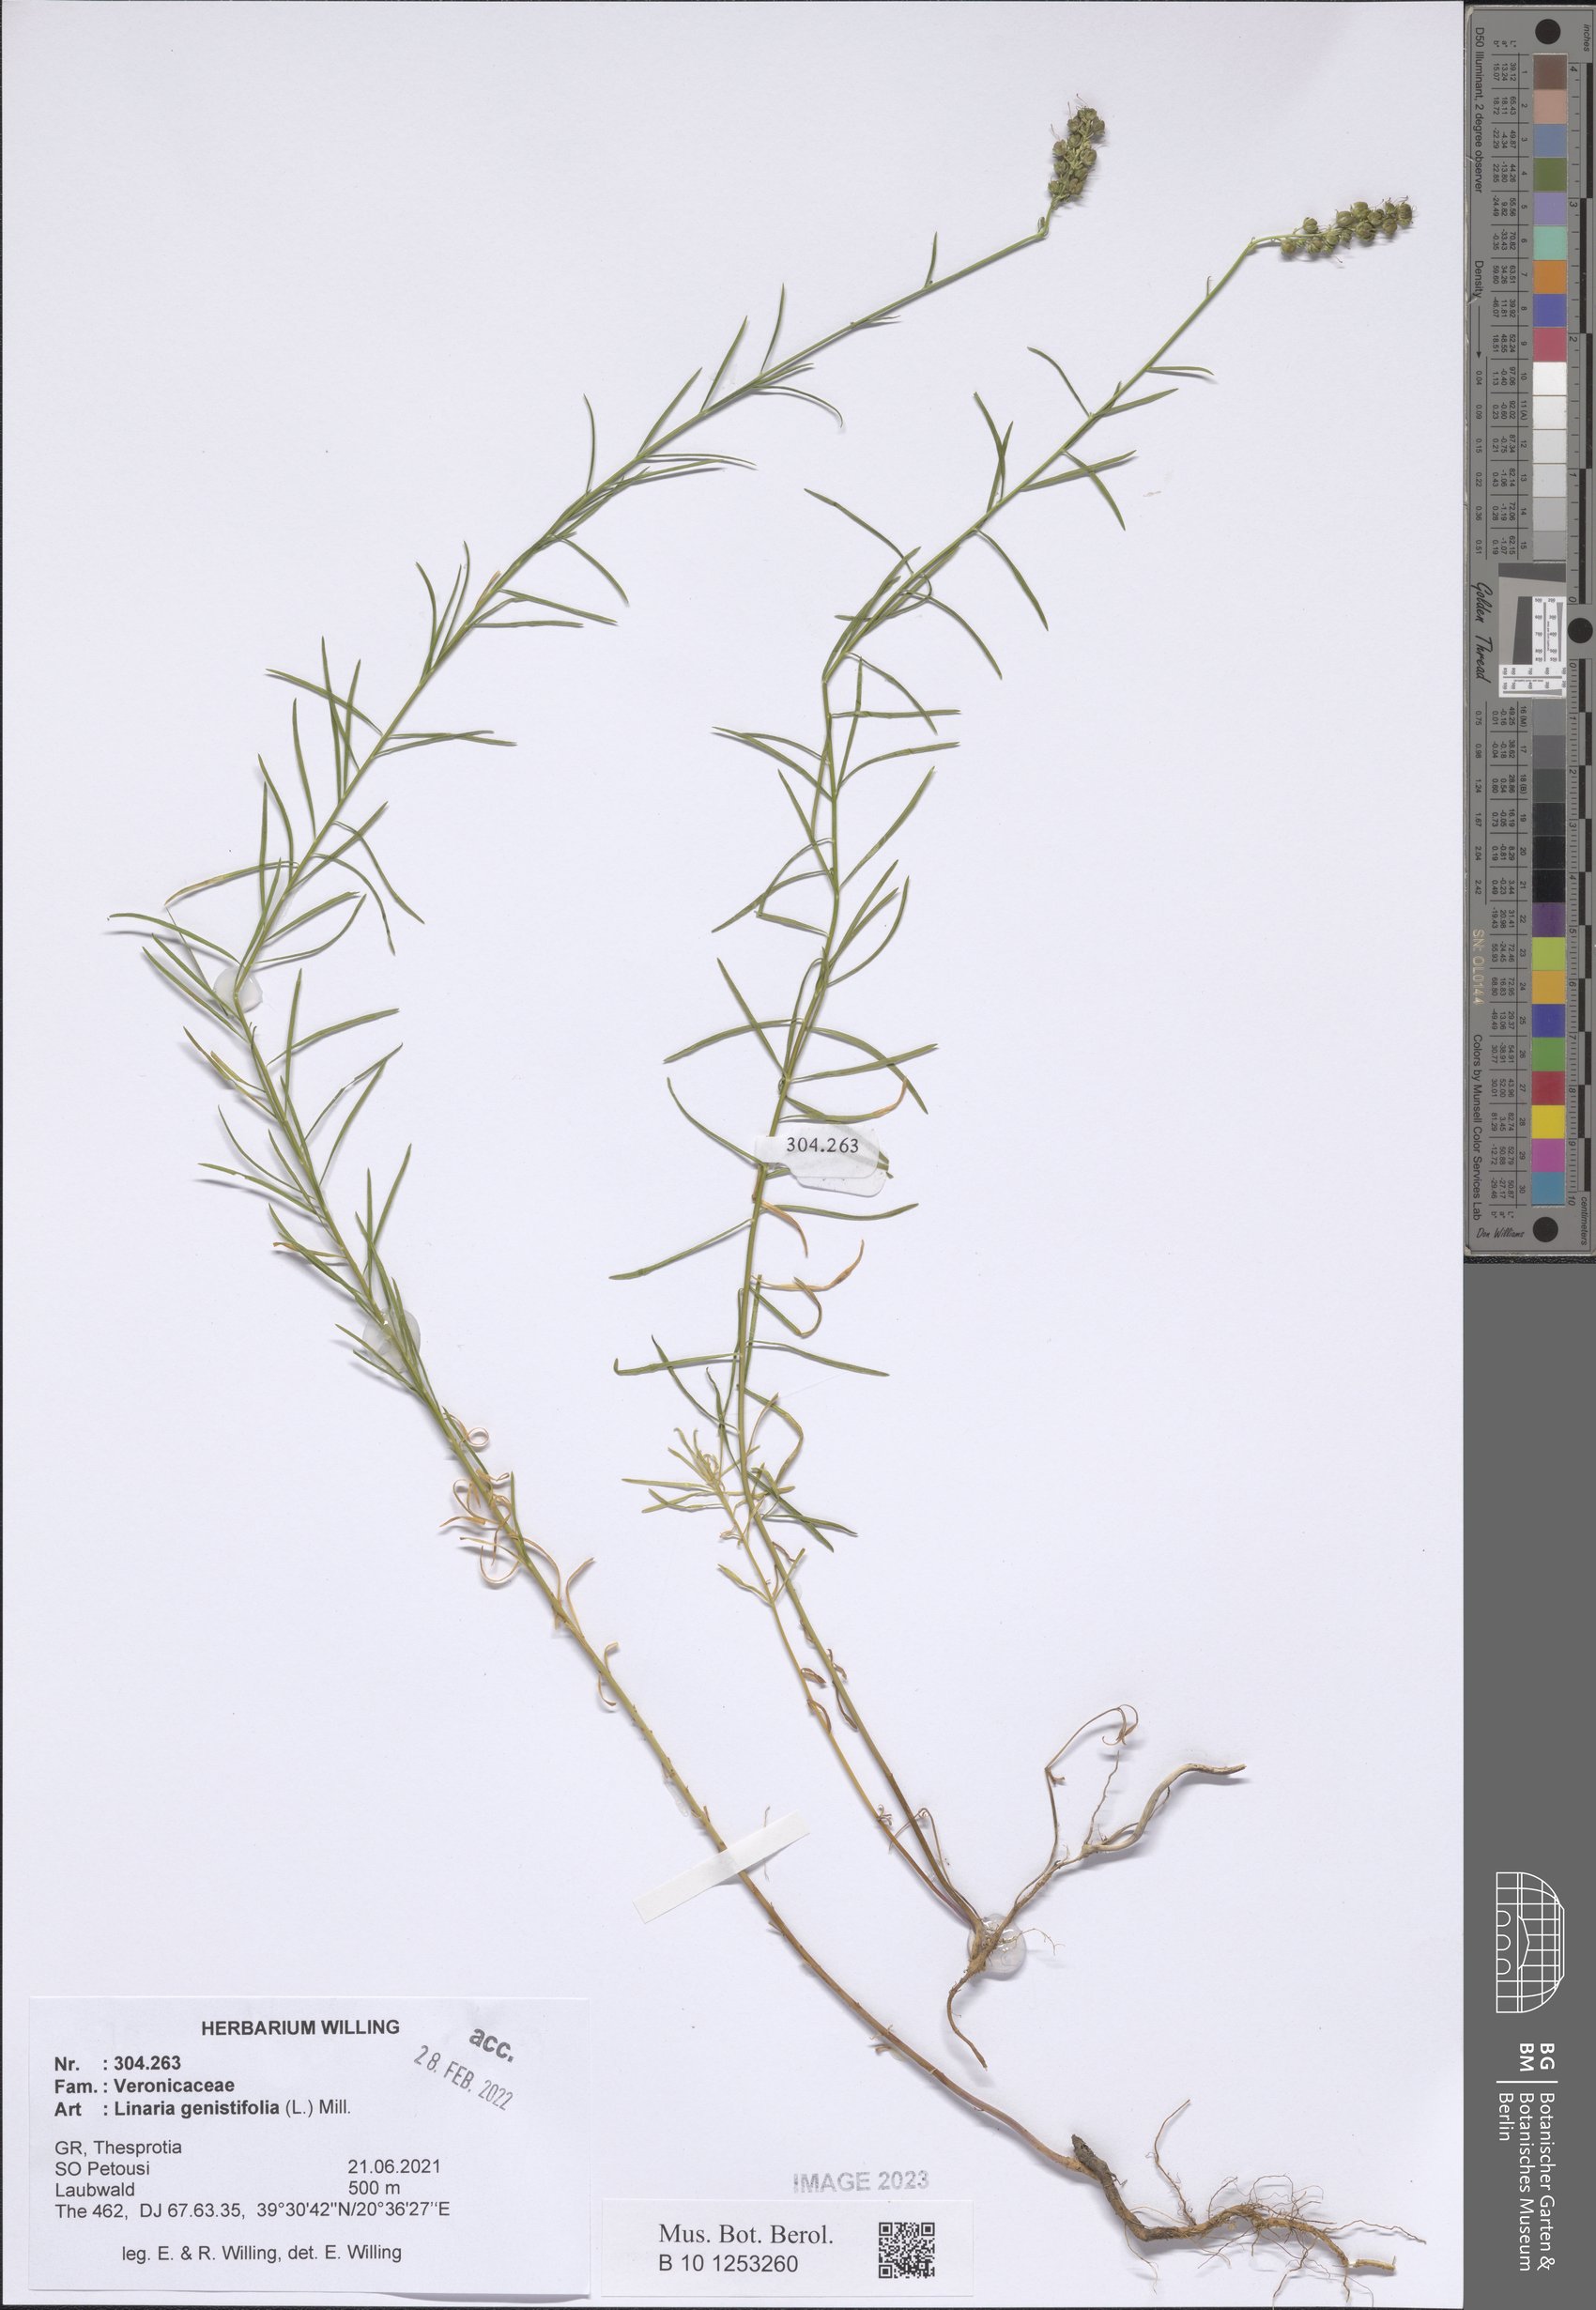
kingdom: Plantae
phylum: Tracheophyta
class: Magnoliopsida
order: Lamiales
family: Plantaginaceae
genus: Linaria
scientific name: Linaria genistifolia
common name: Broomleaf toadflax
